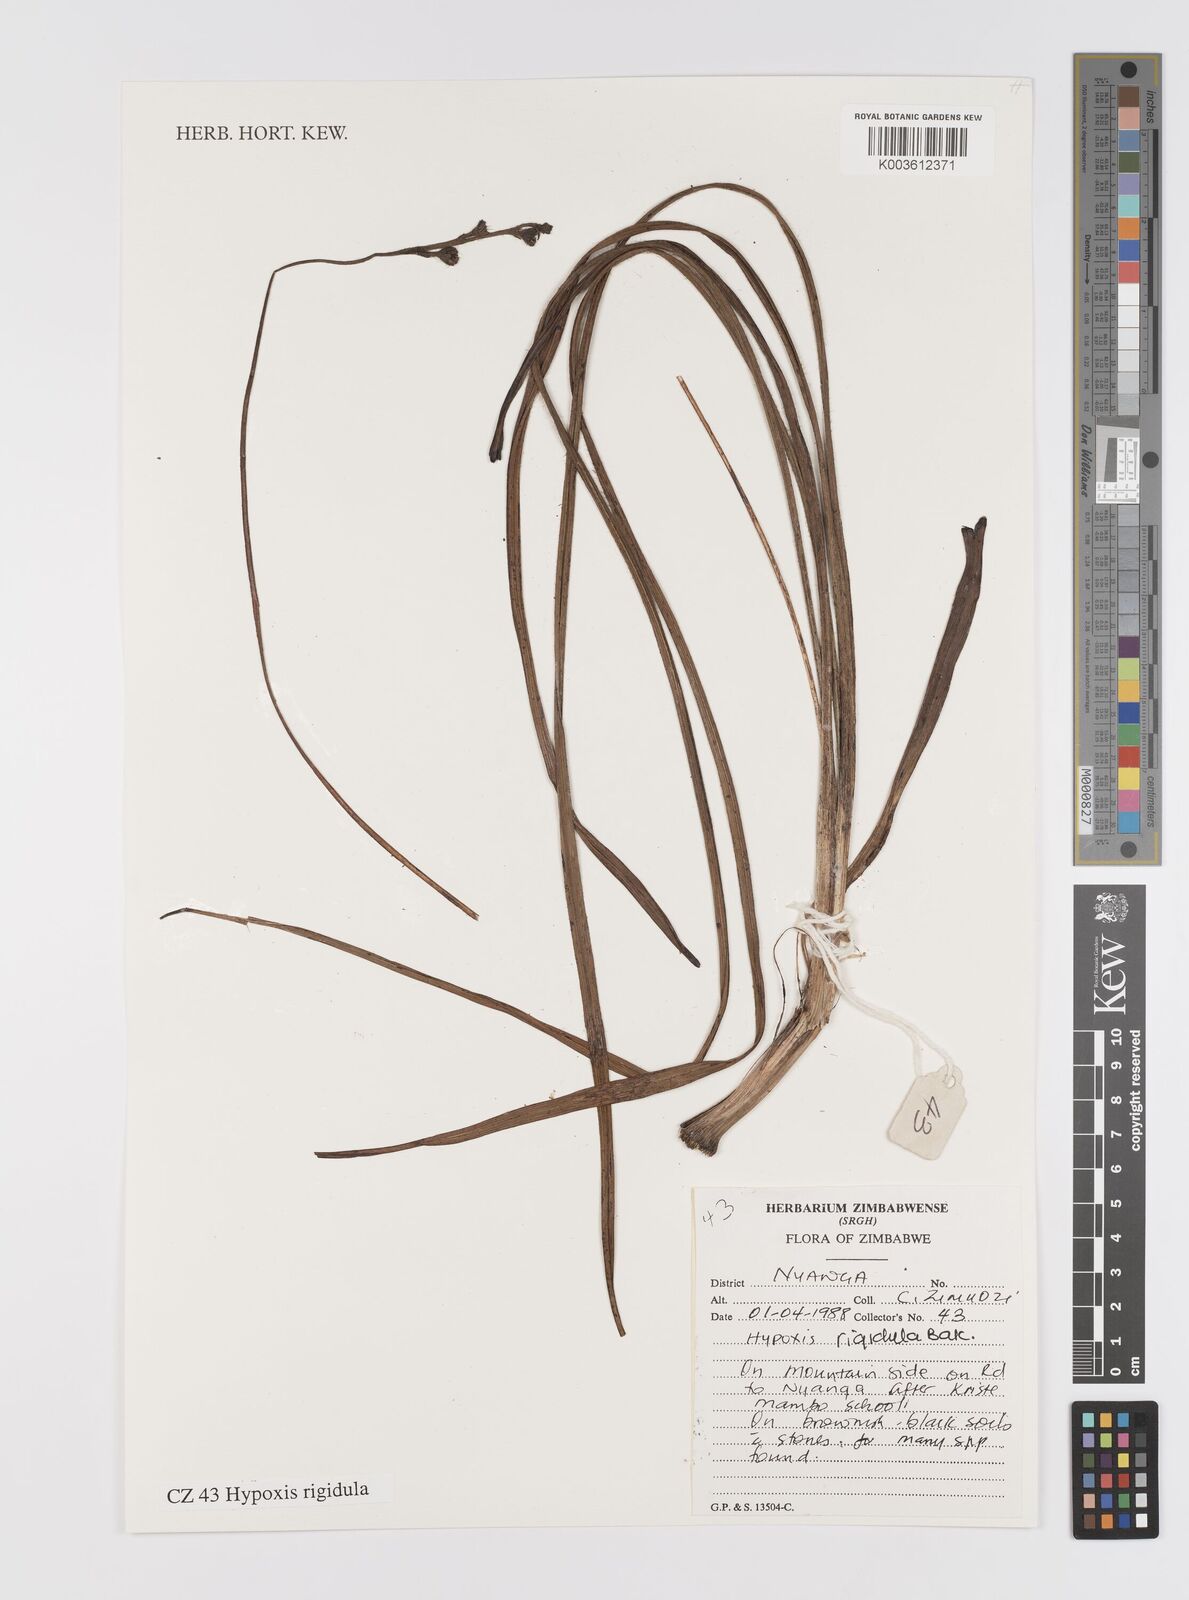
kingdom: Plantae
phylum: Tracheophyta
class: Liliopsida
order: Asparagales
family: Hypoxidaceae
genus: Hypoxis
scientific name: Hypoxis rigidula
